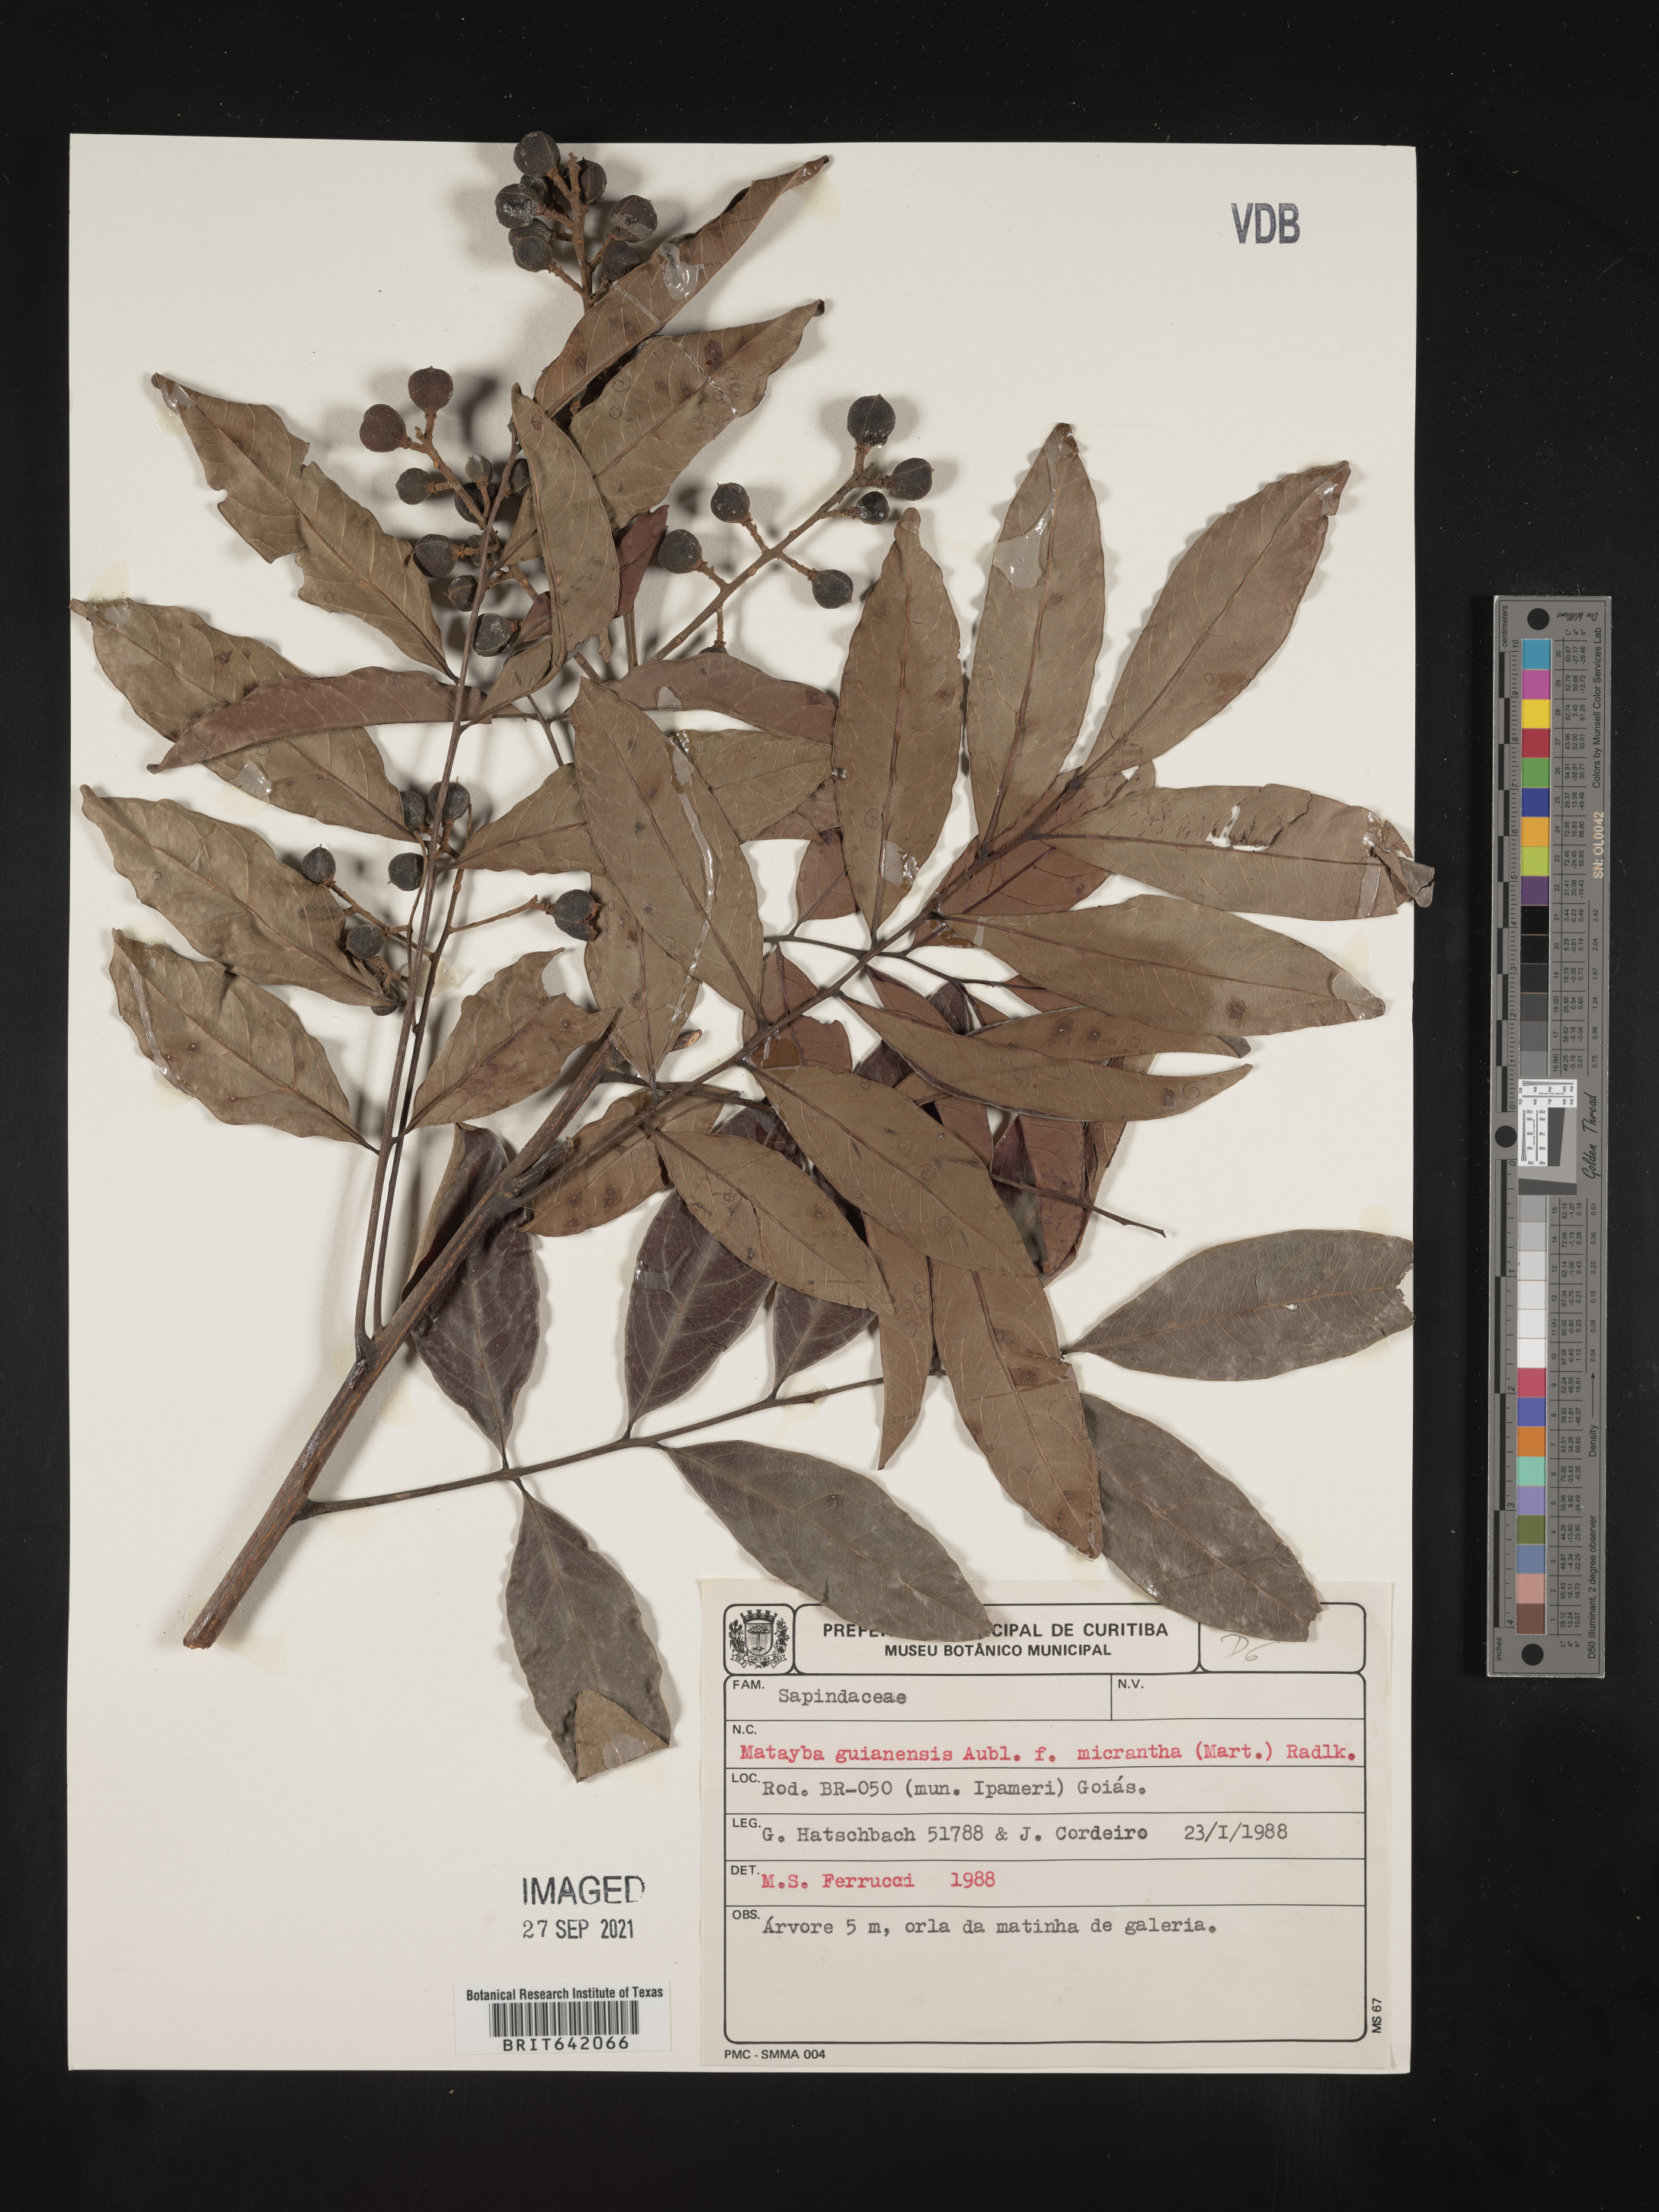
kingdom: Plantae
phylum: Tracheophyta
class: Magnoliopsida
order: Sapindales
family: Sapindaceae
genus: Matayba
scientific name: Matayba
